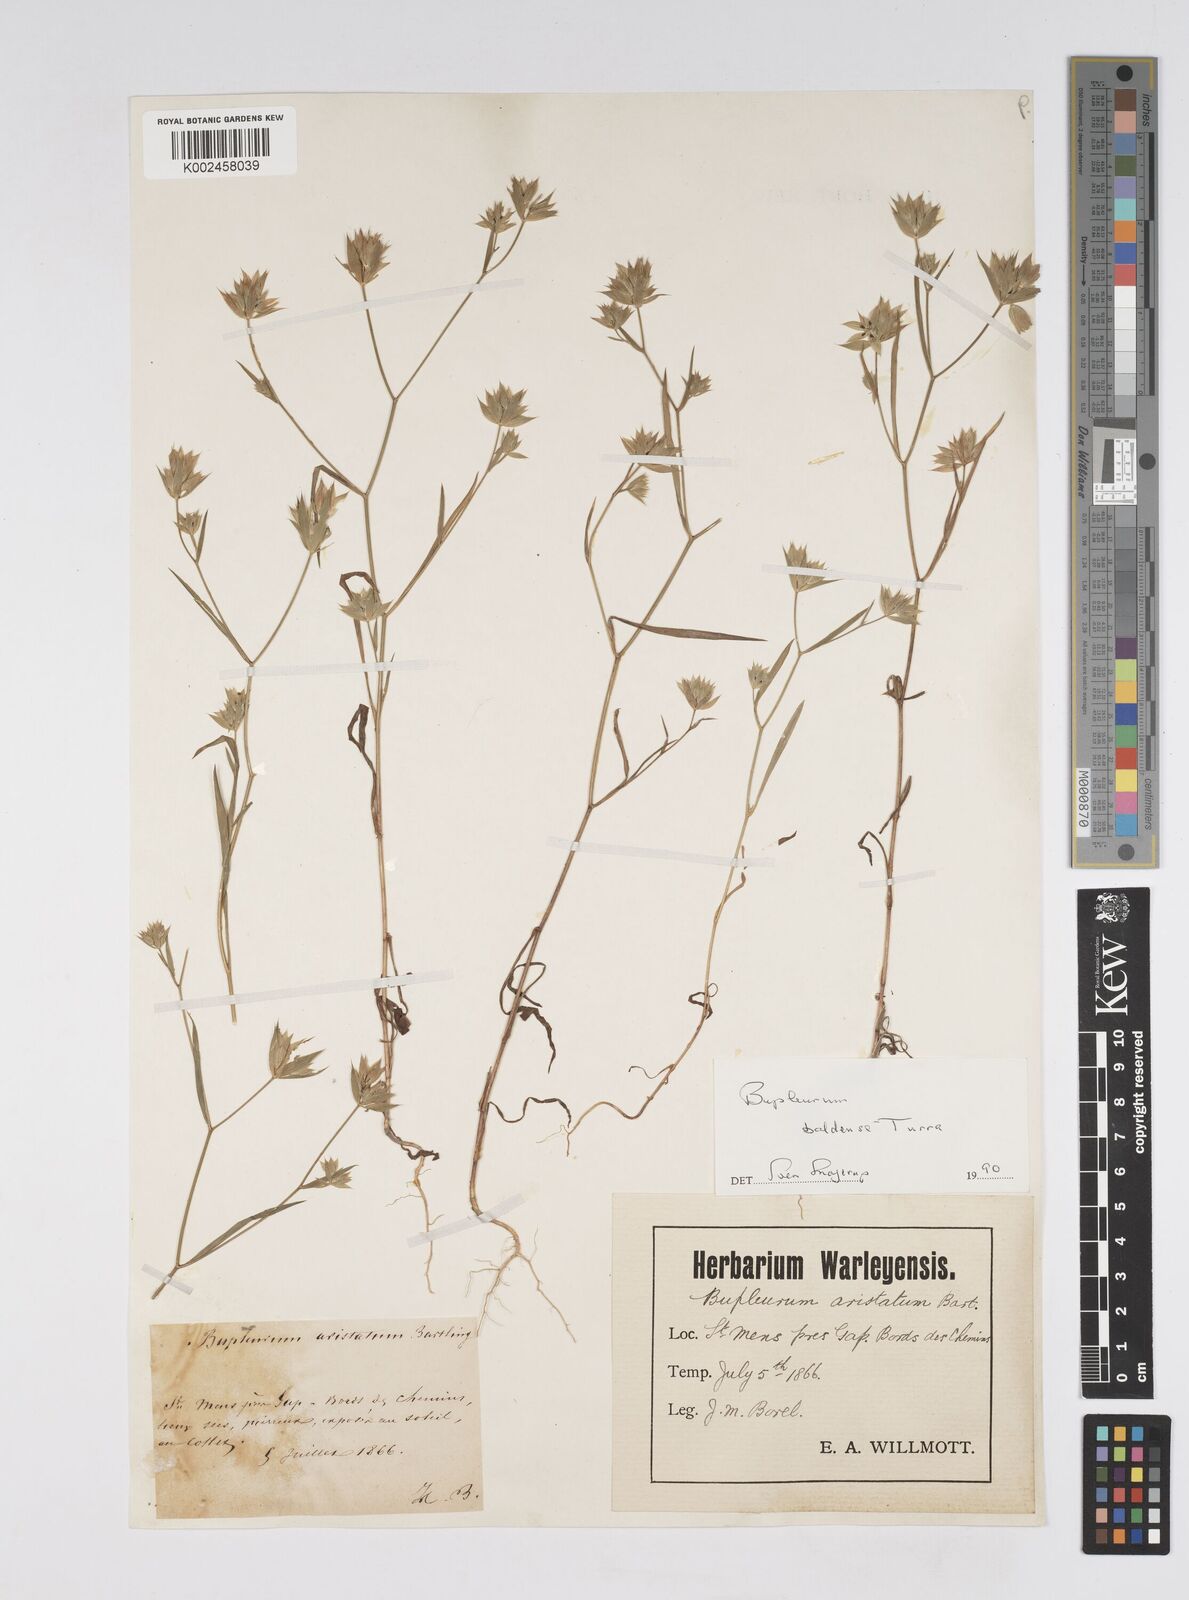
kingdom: Plantae
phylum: Tracheophyta
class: Magnoliopsida
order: Apiales
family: Apiaceae
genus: Bupleurum
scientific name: Bupleurum baldense
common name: Small hare's-ear
